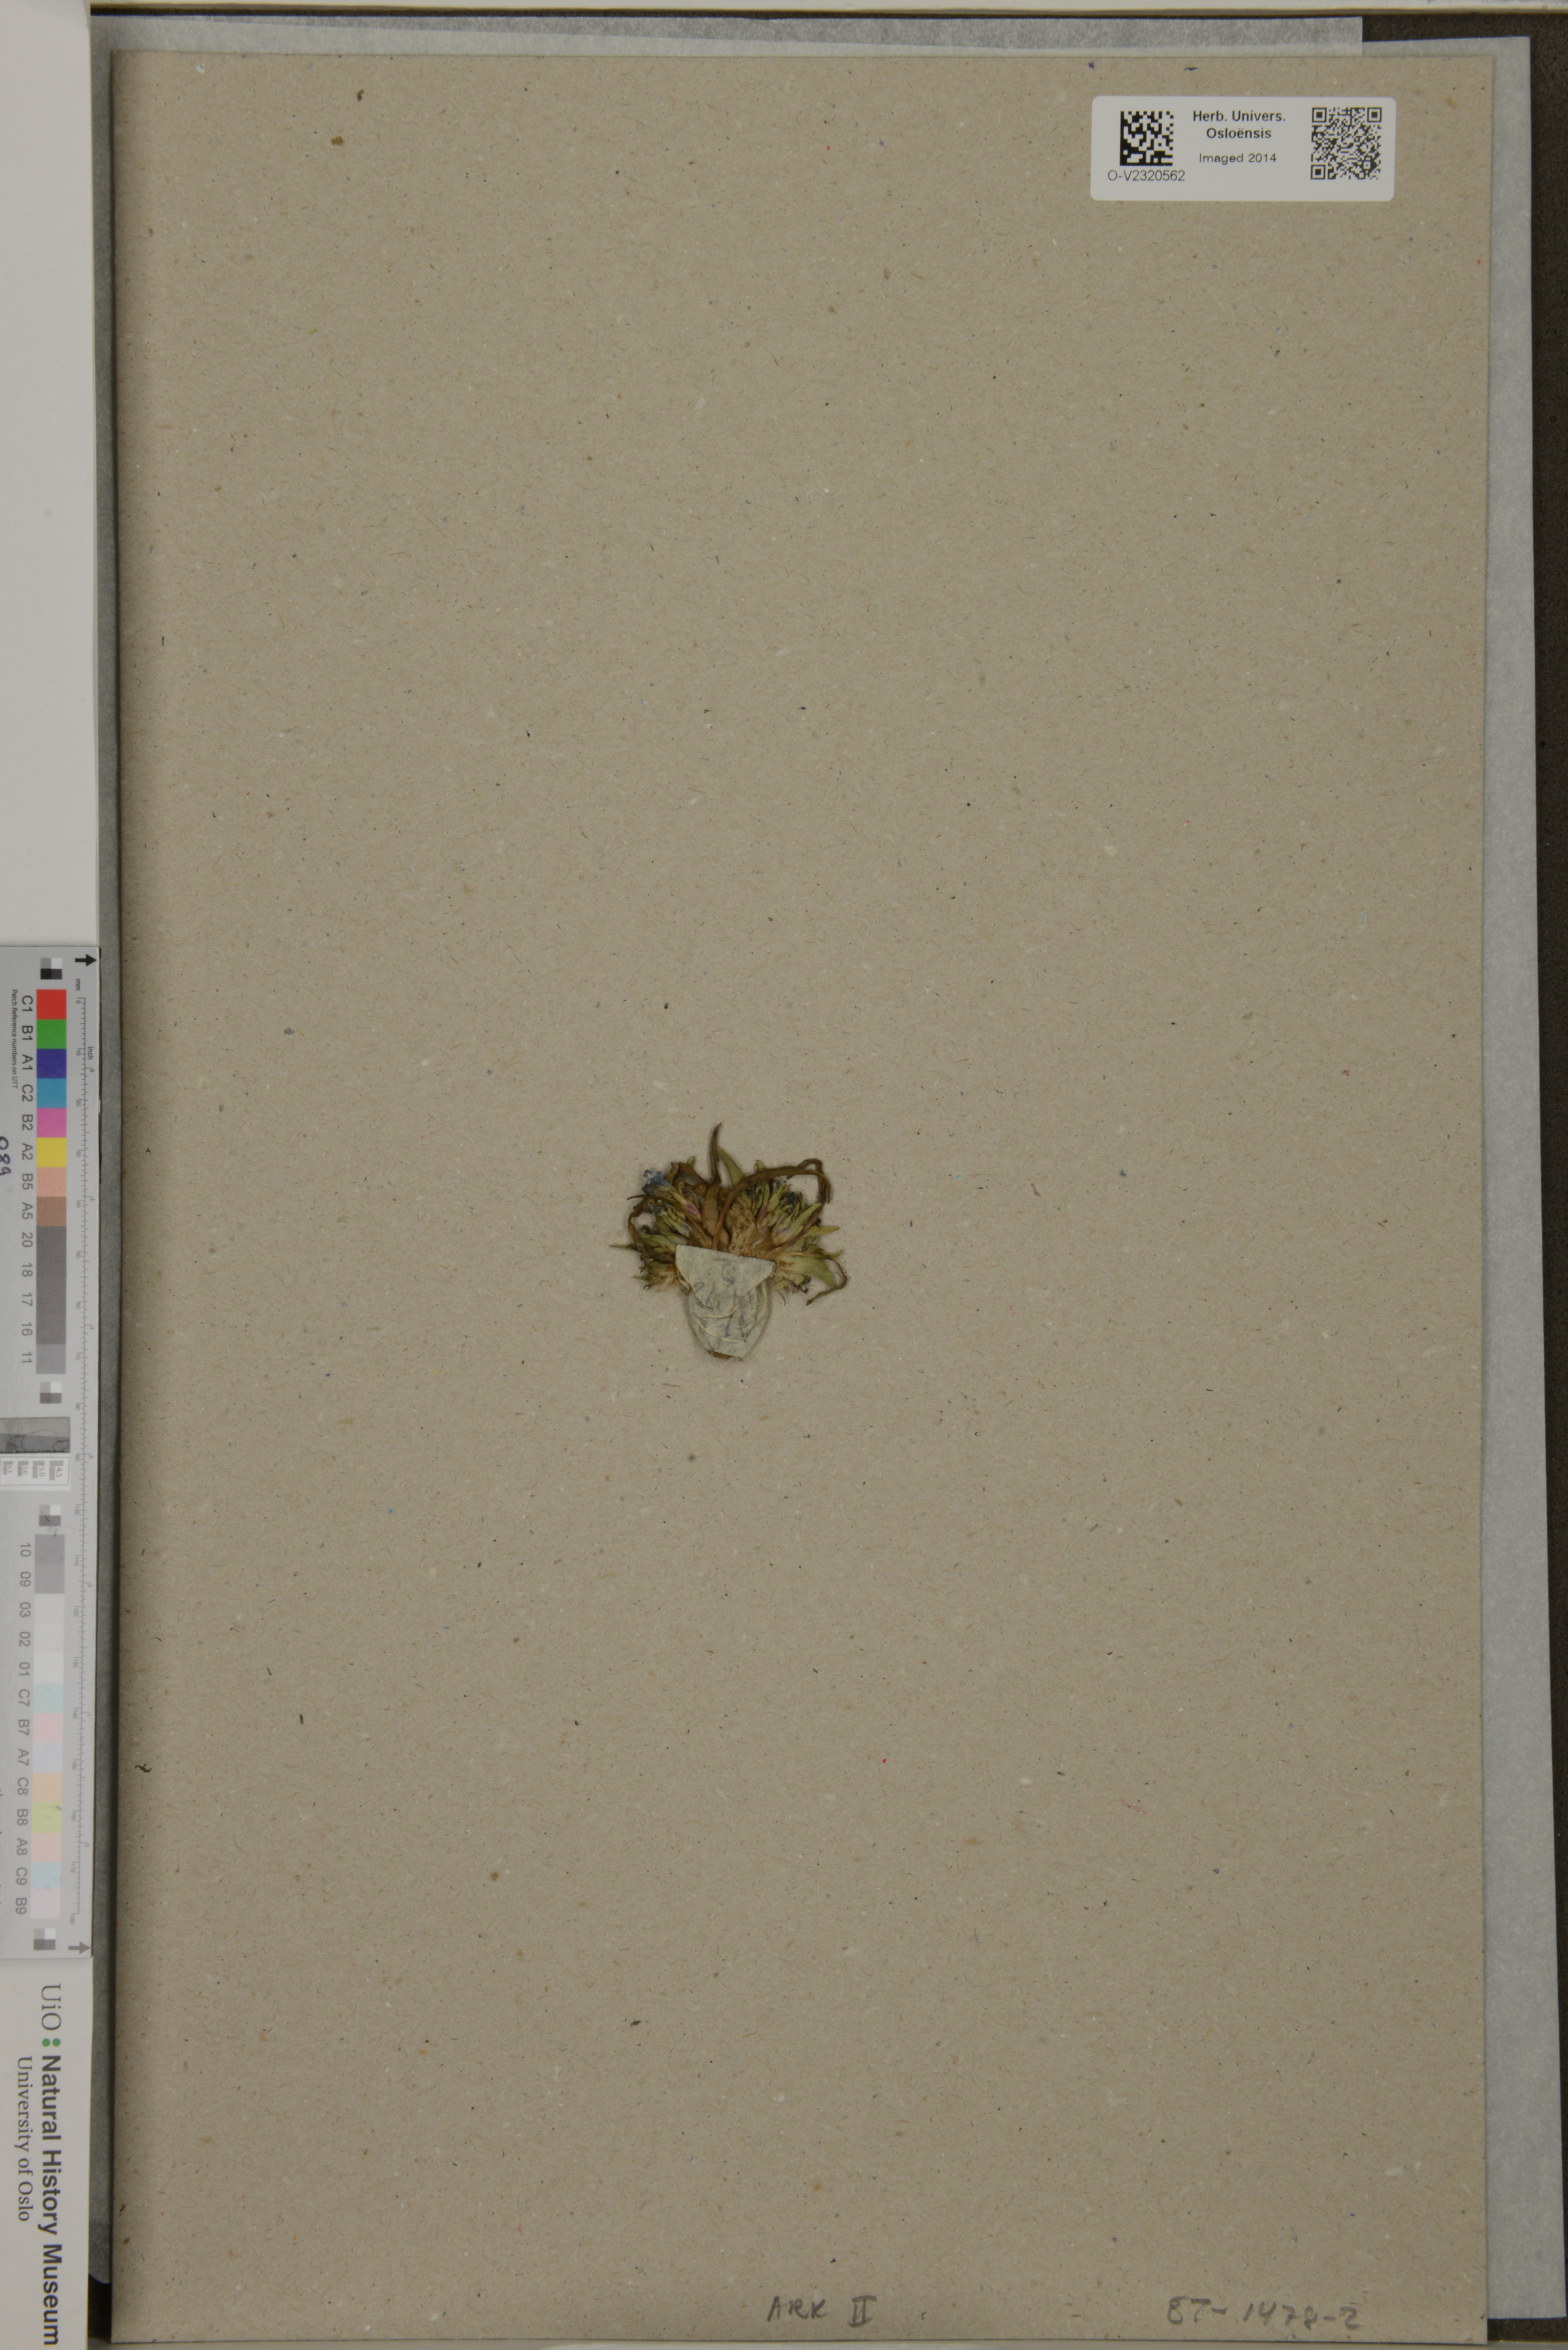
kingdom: Plantae
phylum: Tracheophyta
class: Liliopsida
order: Commelinales
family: Commelinaceae
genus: Cyanotis
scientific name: Cyanotis vaga
